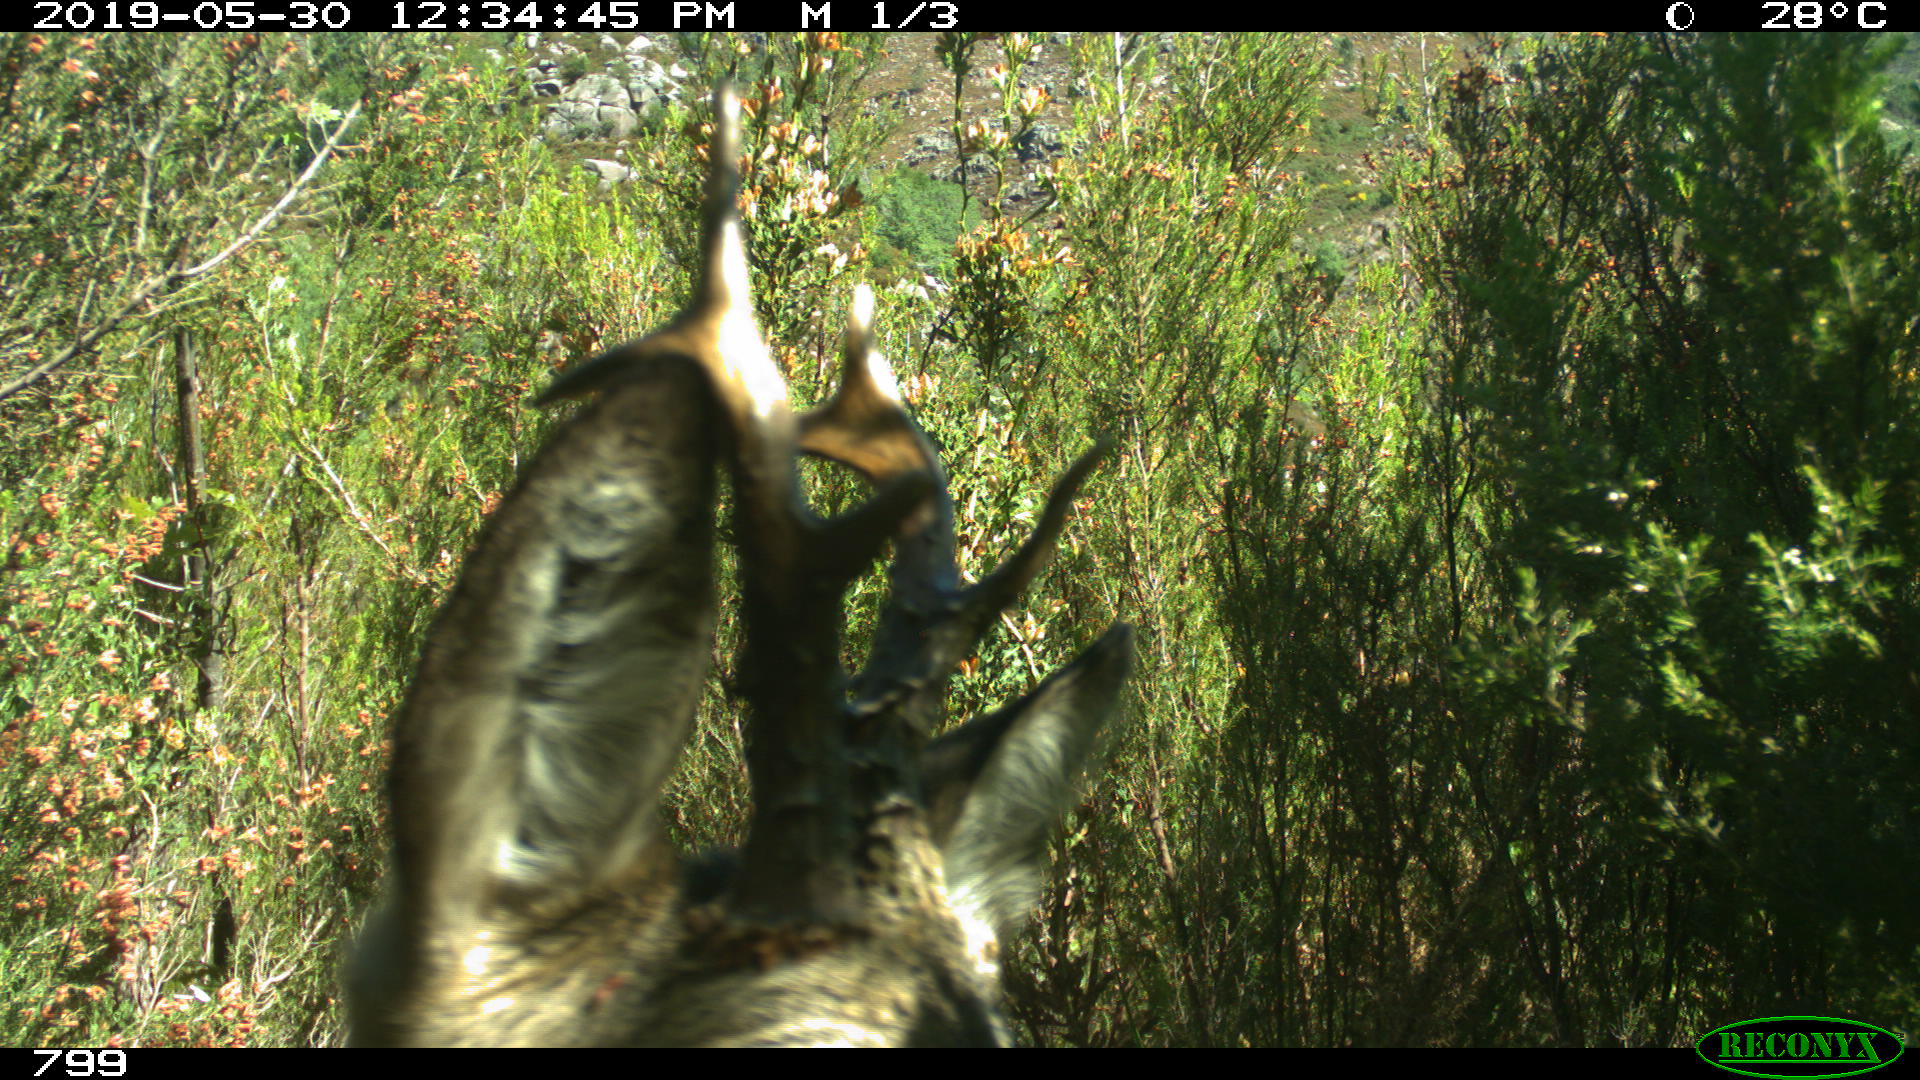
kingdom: Animalia
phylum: Chordata
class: Mammalia
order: Artiodactyla
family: Cervidae
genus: Capreolus
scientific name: Capreolus capreolus
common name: Western roe deer
